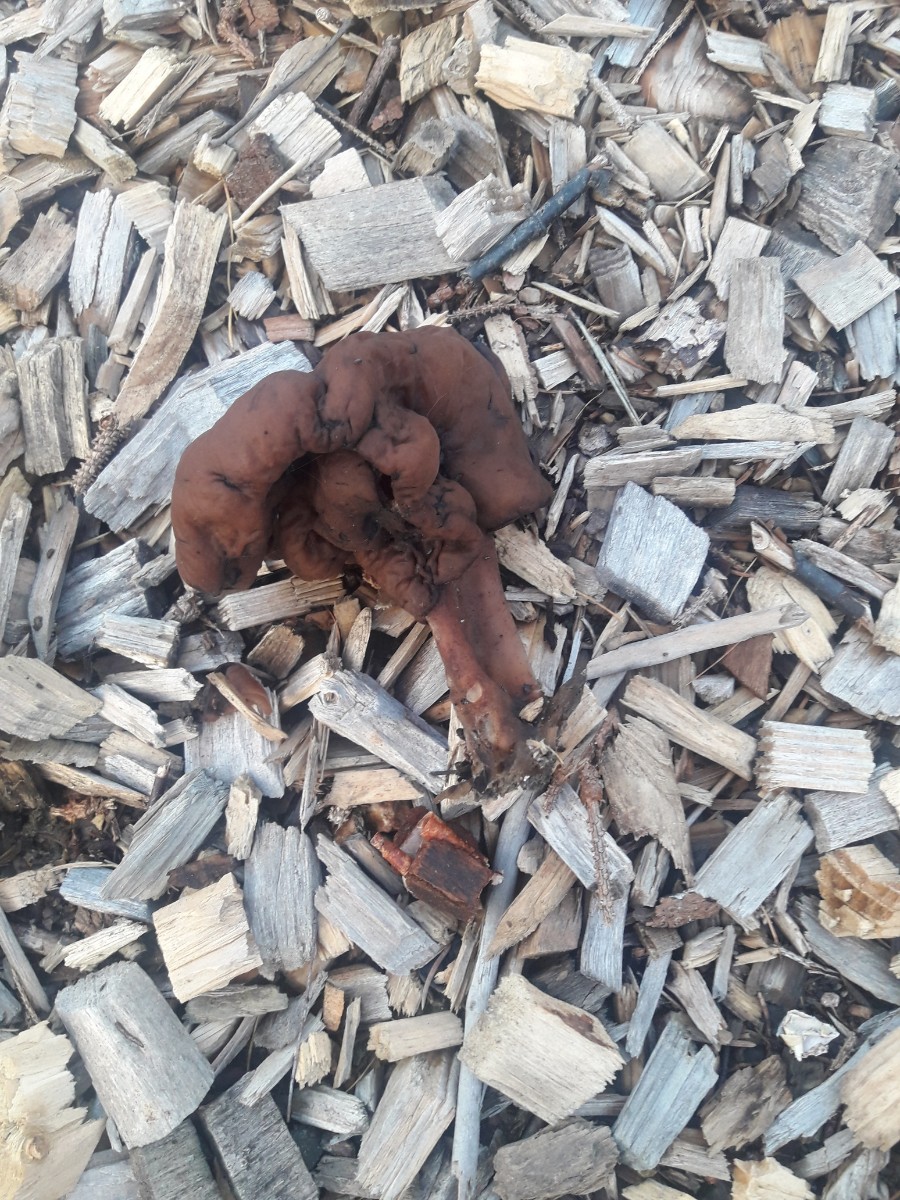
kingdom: Fungi
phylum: Ascomycota
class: Pezizomycetes
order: Pezizales
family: Discinaceae
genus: Gyromitra
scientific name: Gyromitra infula
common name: bispehue-stenmorkel
